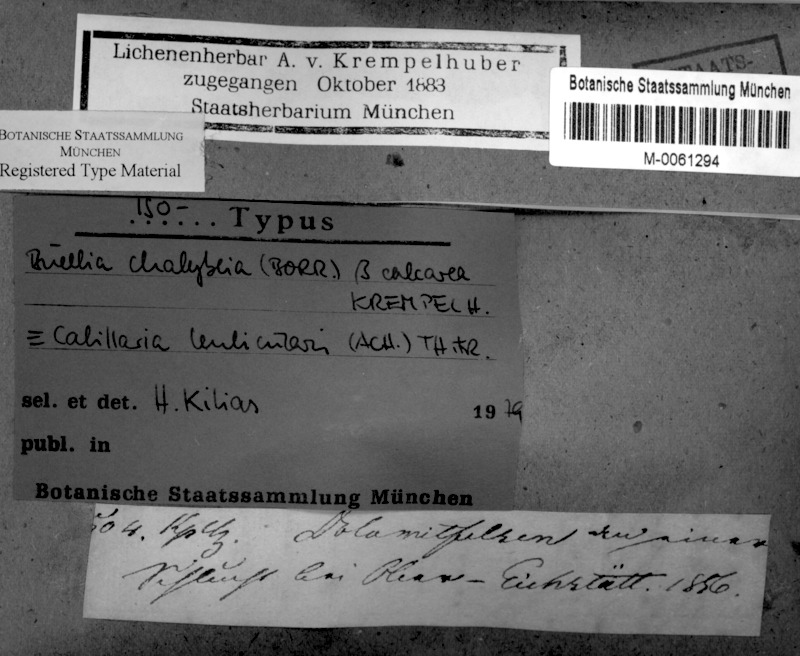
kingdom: Fungi
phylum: Ascomycota
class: Lecanoromycetes
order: Lecanorales
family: Catillariaceae
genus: Catillaria
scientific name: Catillaria lenticularis
